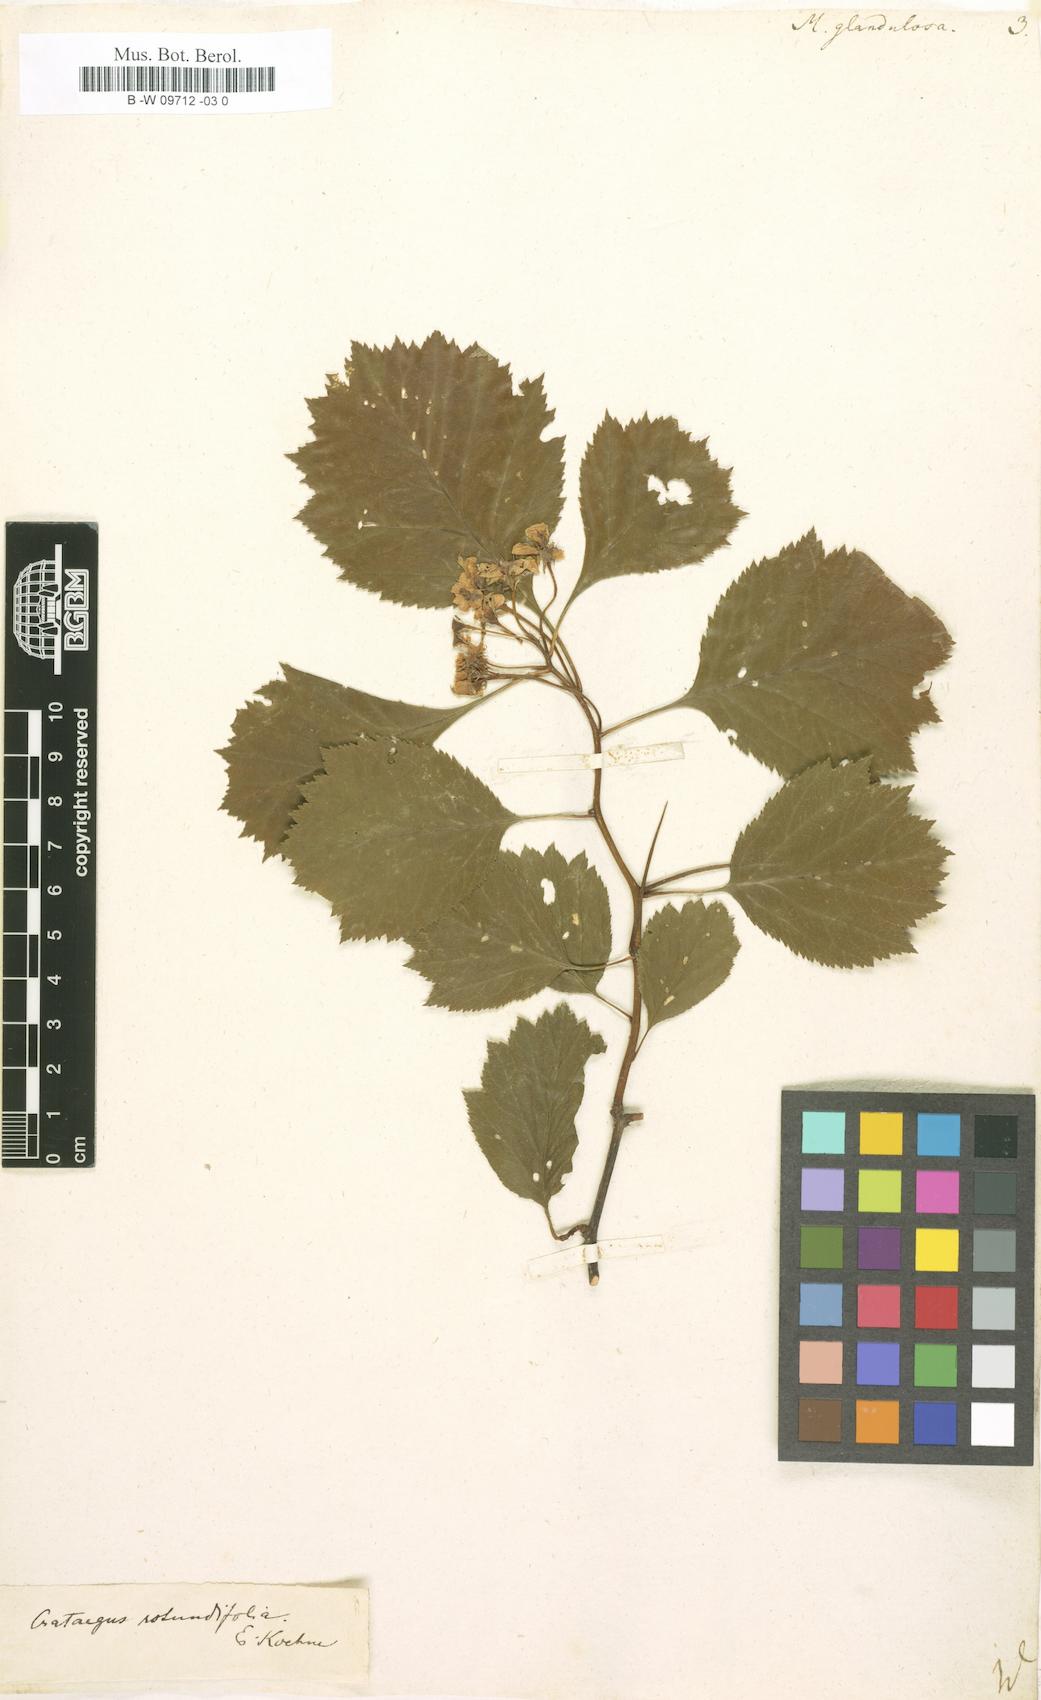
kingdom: Plantae
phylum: Tracheophyta
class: Magnoliopsida
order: Rosales
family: Rosaceae
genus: Crataegus
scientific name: Crataegus
